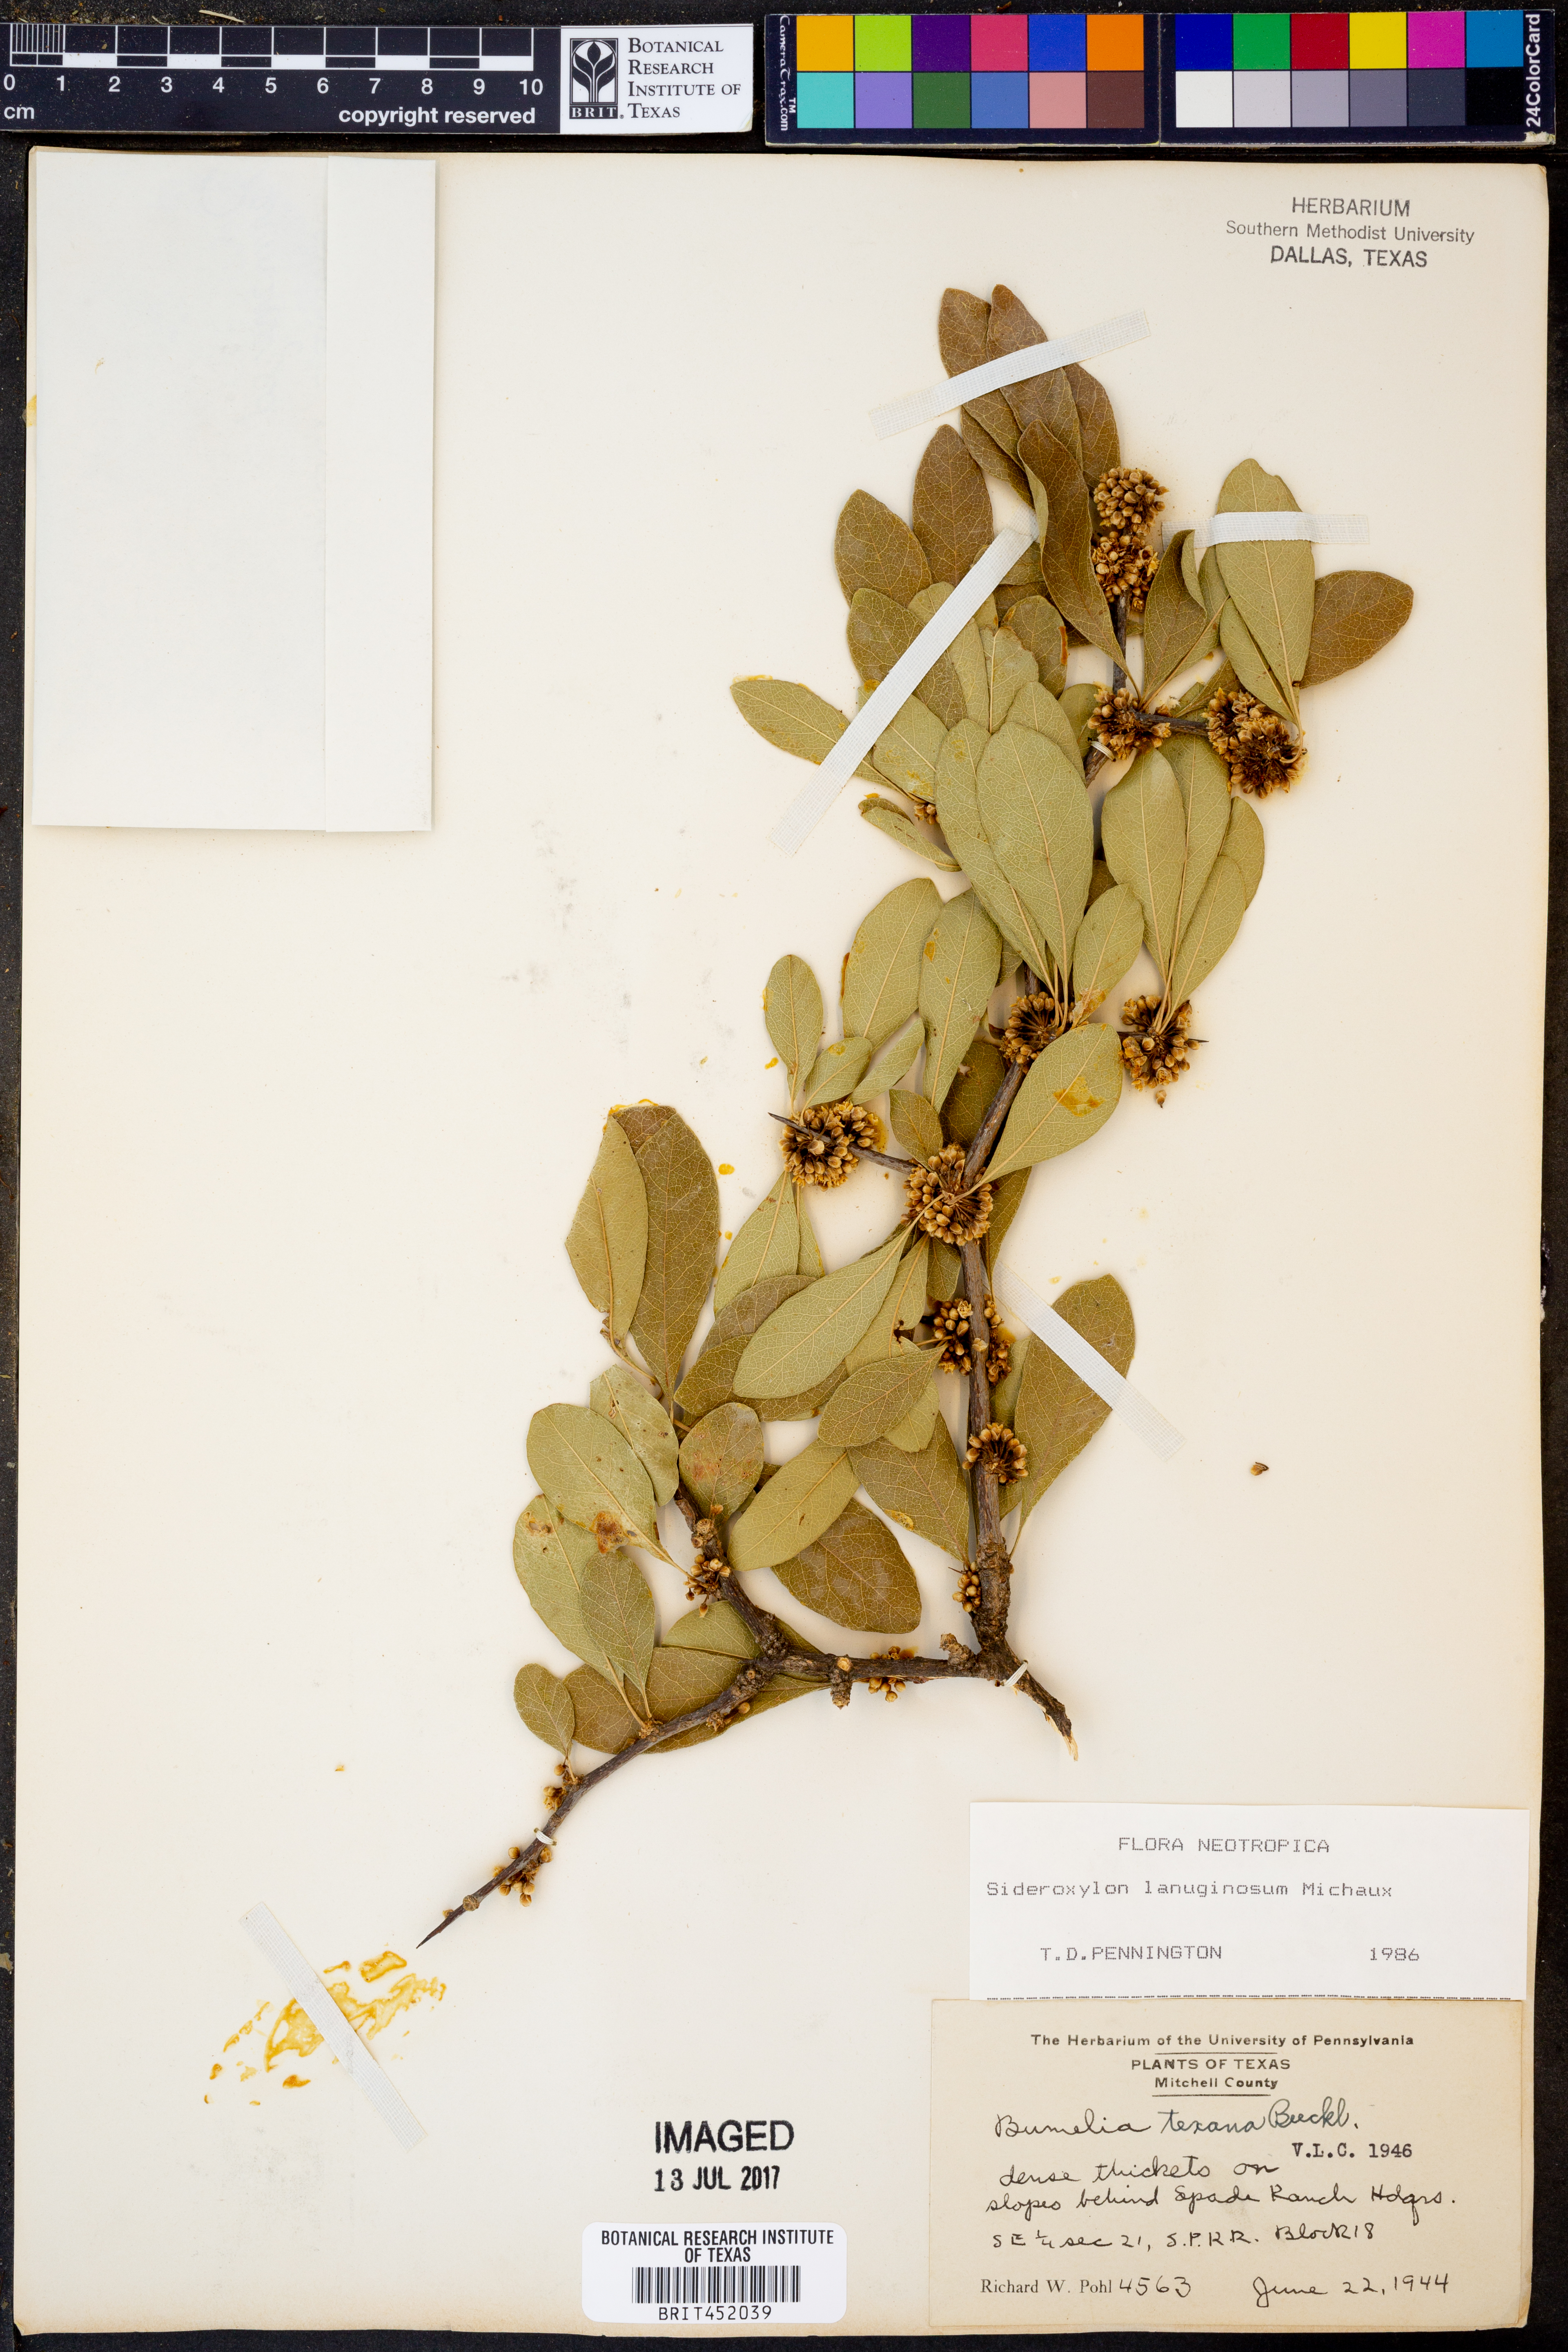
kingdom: Plantae
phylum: Tracheophyta
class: Magnoliopsida
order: Ericales
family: Sapotaceae
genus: Sideroxylon
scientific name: Sideroxylon lanuginosum
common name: Chittamwood
